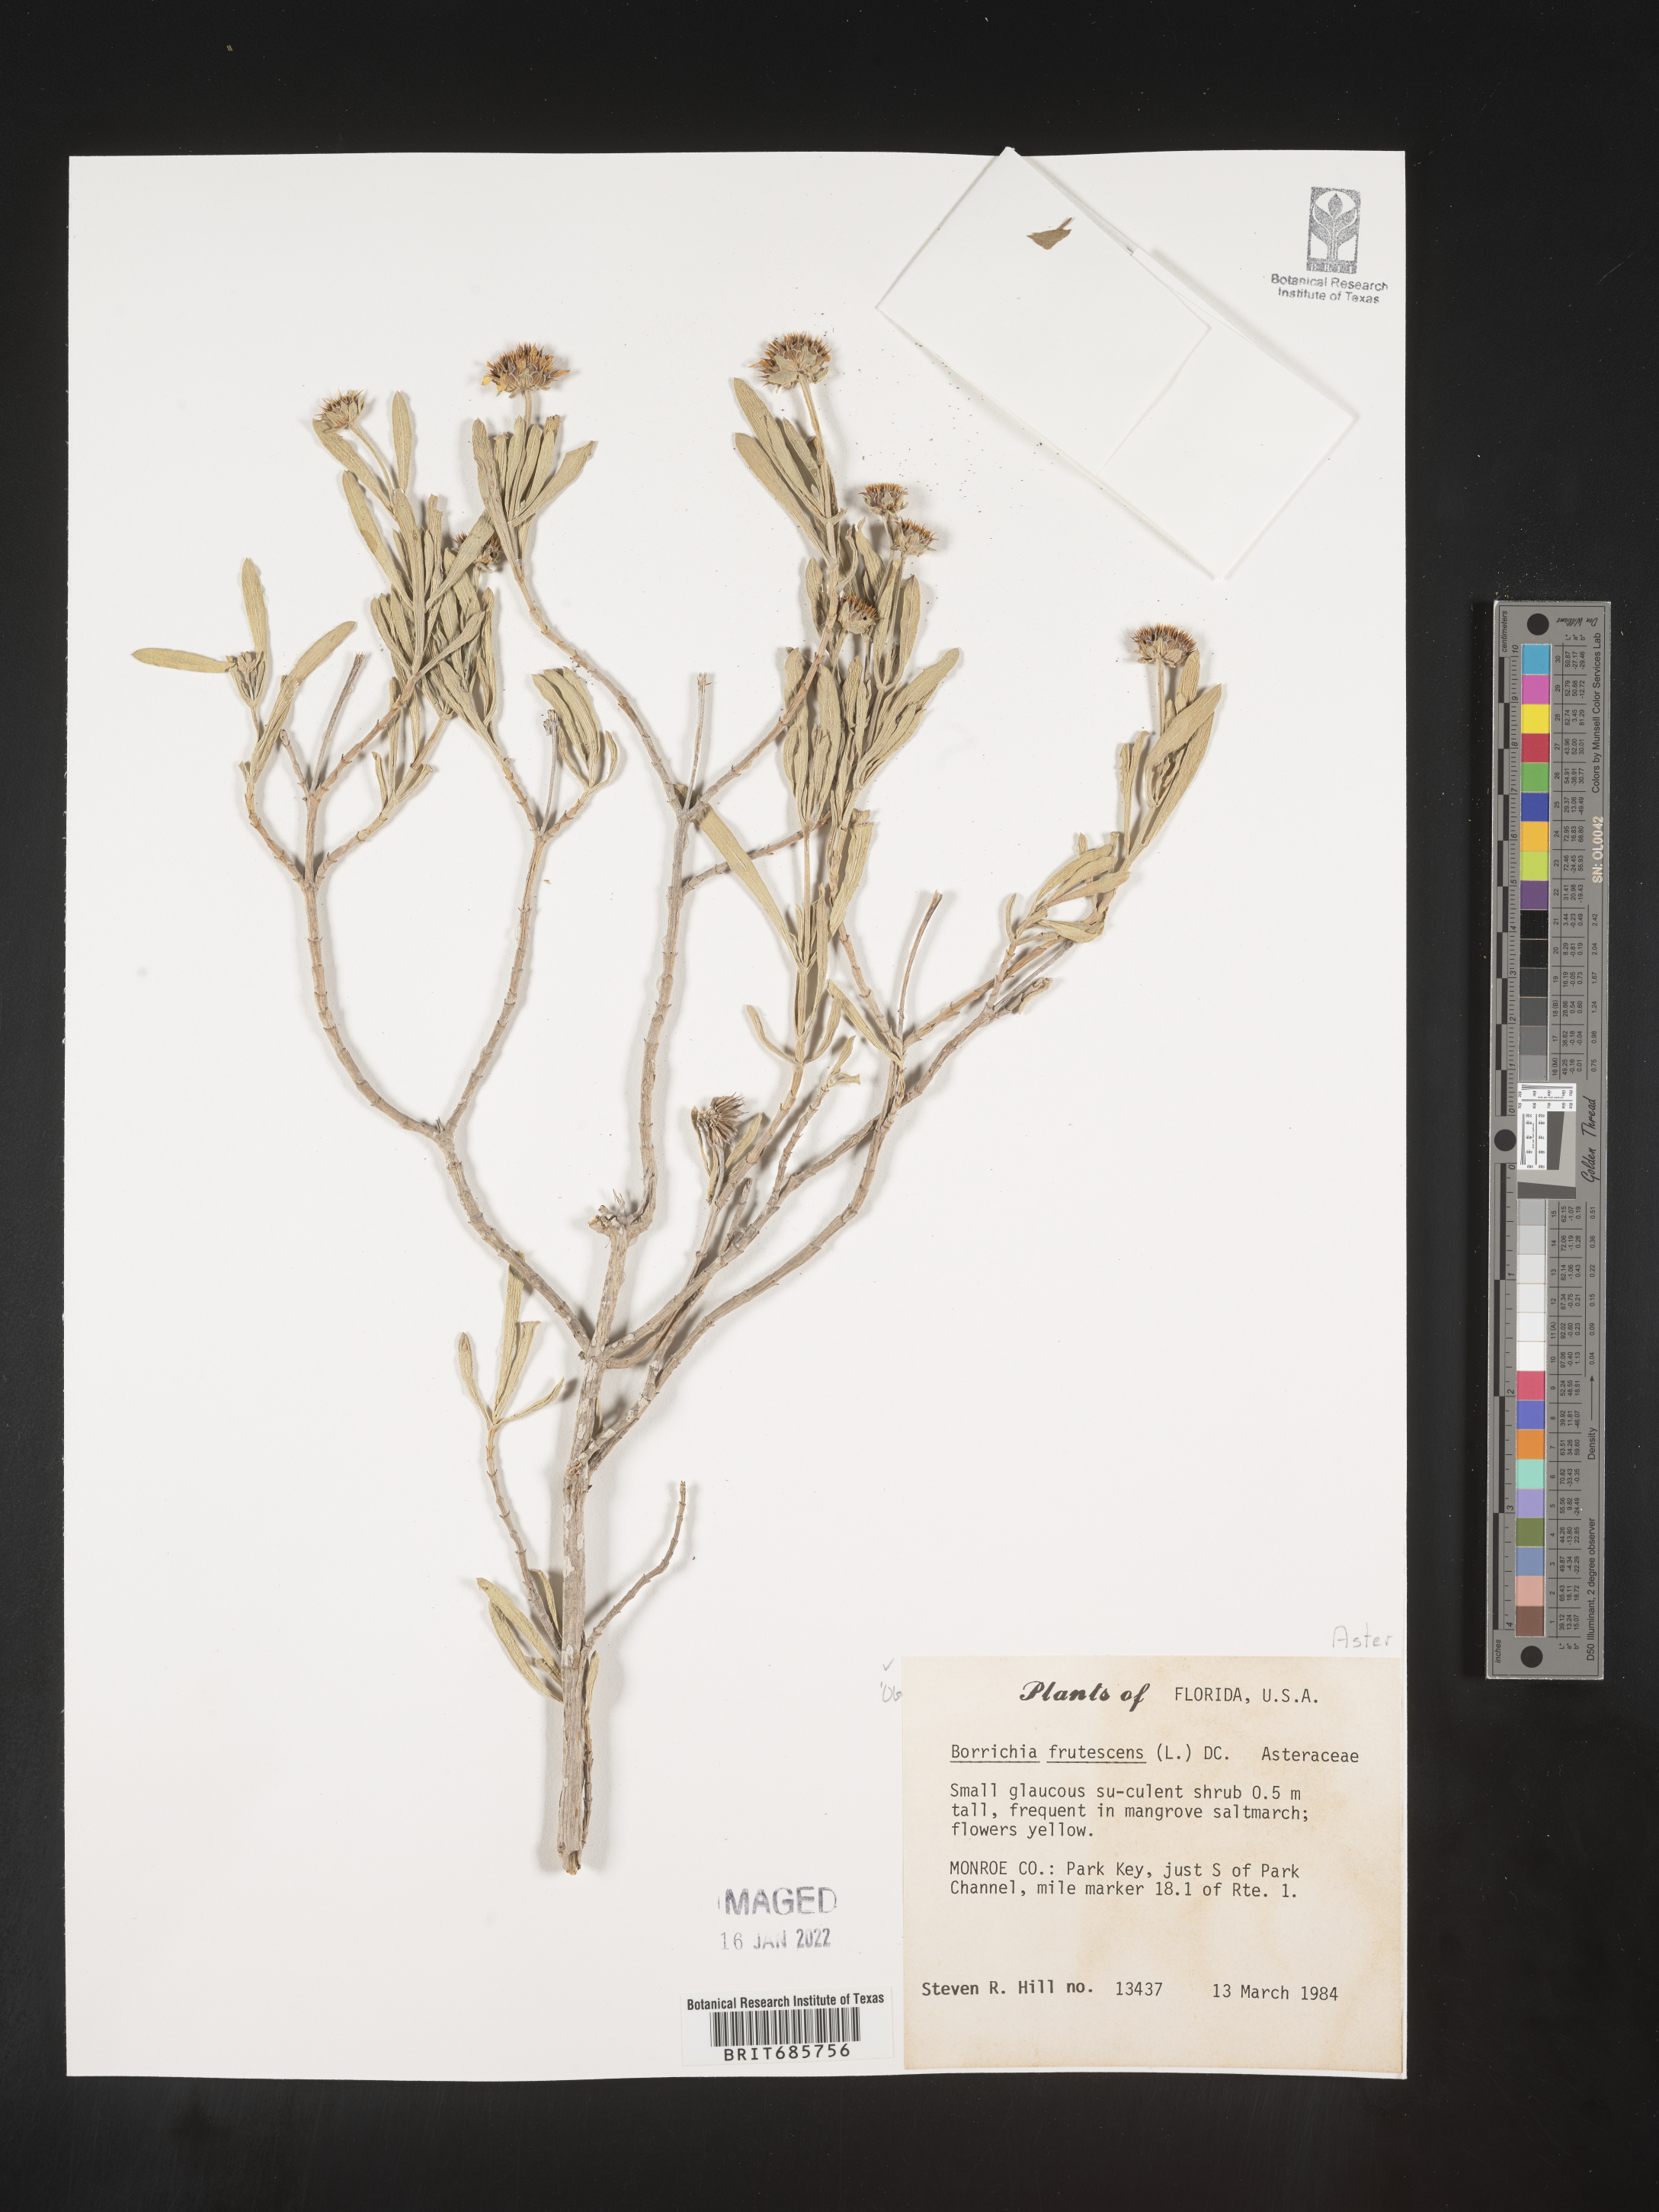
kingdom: Plantae
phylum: Tracheophyta
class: Magnoliopsida
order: Asterales
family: Asteraceae
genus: Borrichia
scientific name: Borrichia frutescens
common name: Sea oxeye
